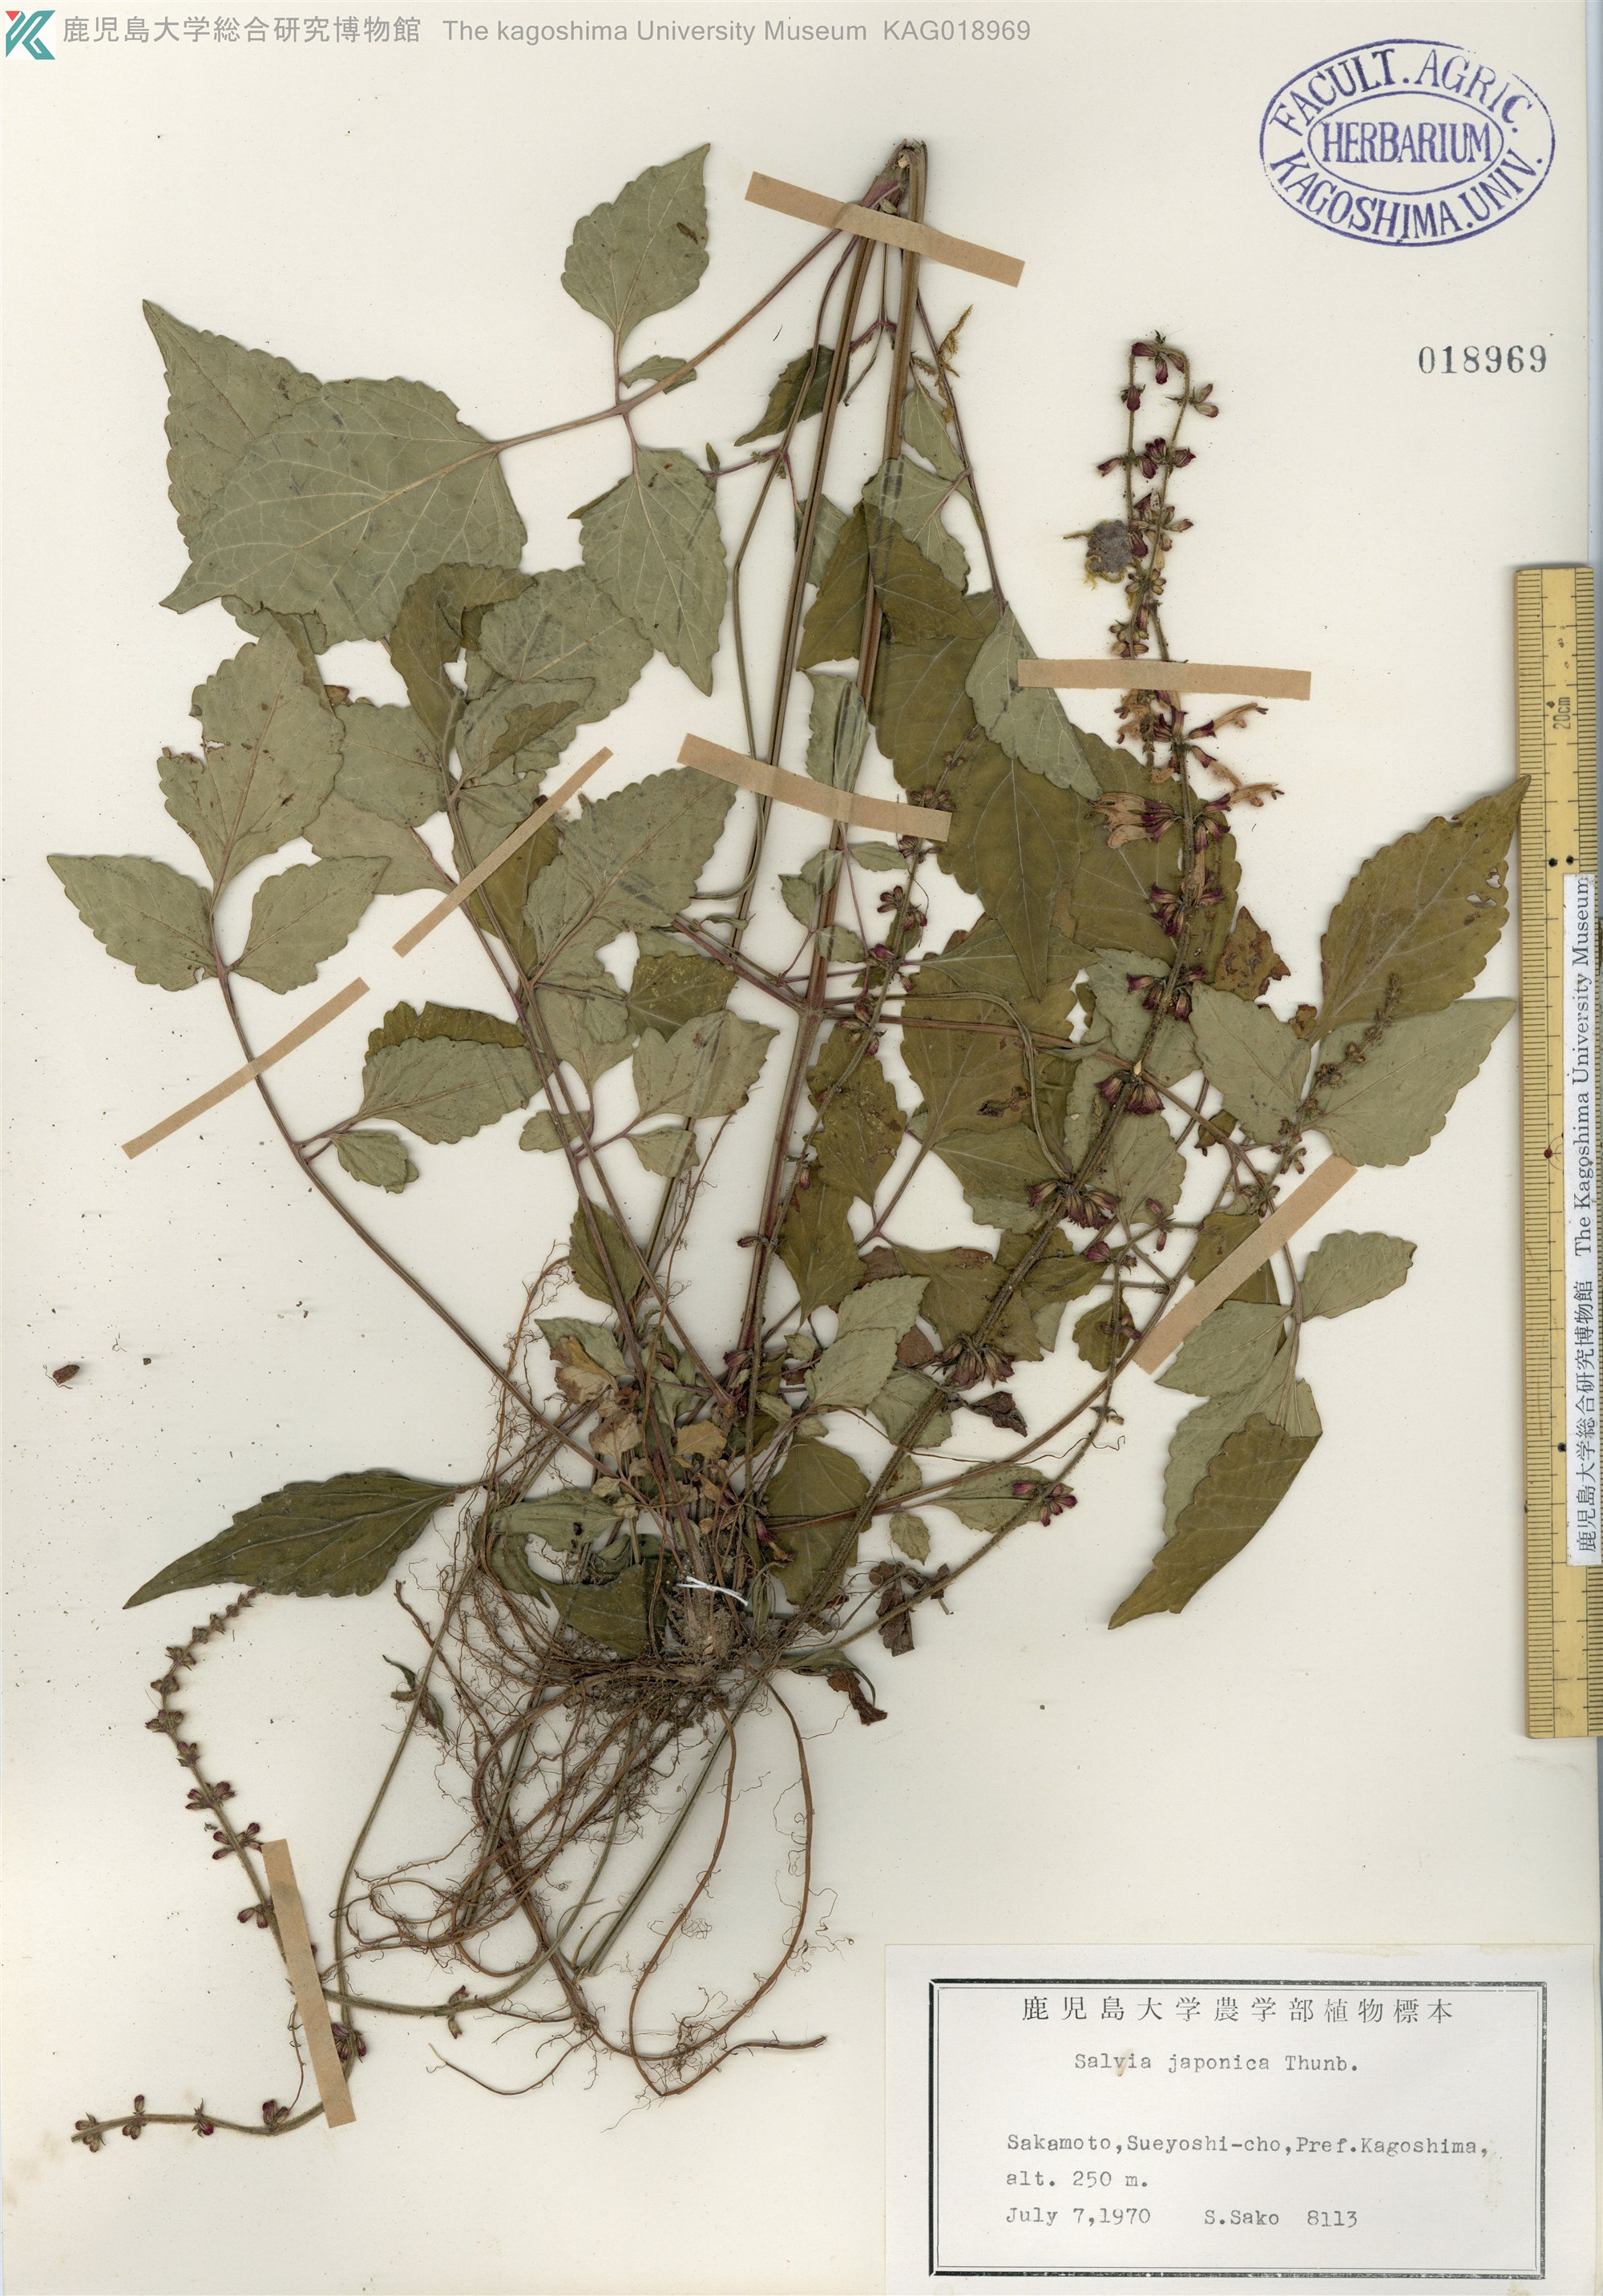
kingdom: Plantae
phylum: Tracheophyta
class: Magnoliopsida
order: Lamiales
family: Lamiaceae
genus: Salvia
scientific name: Salvia japonica
